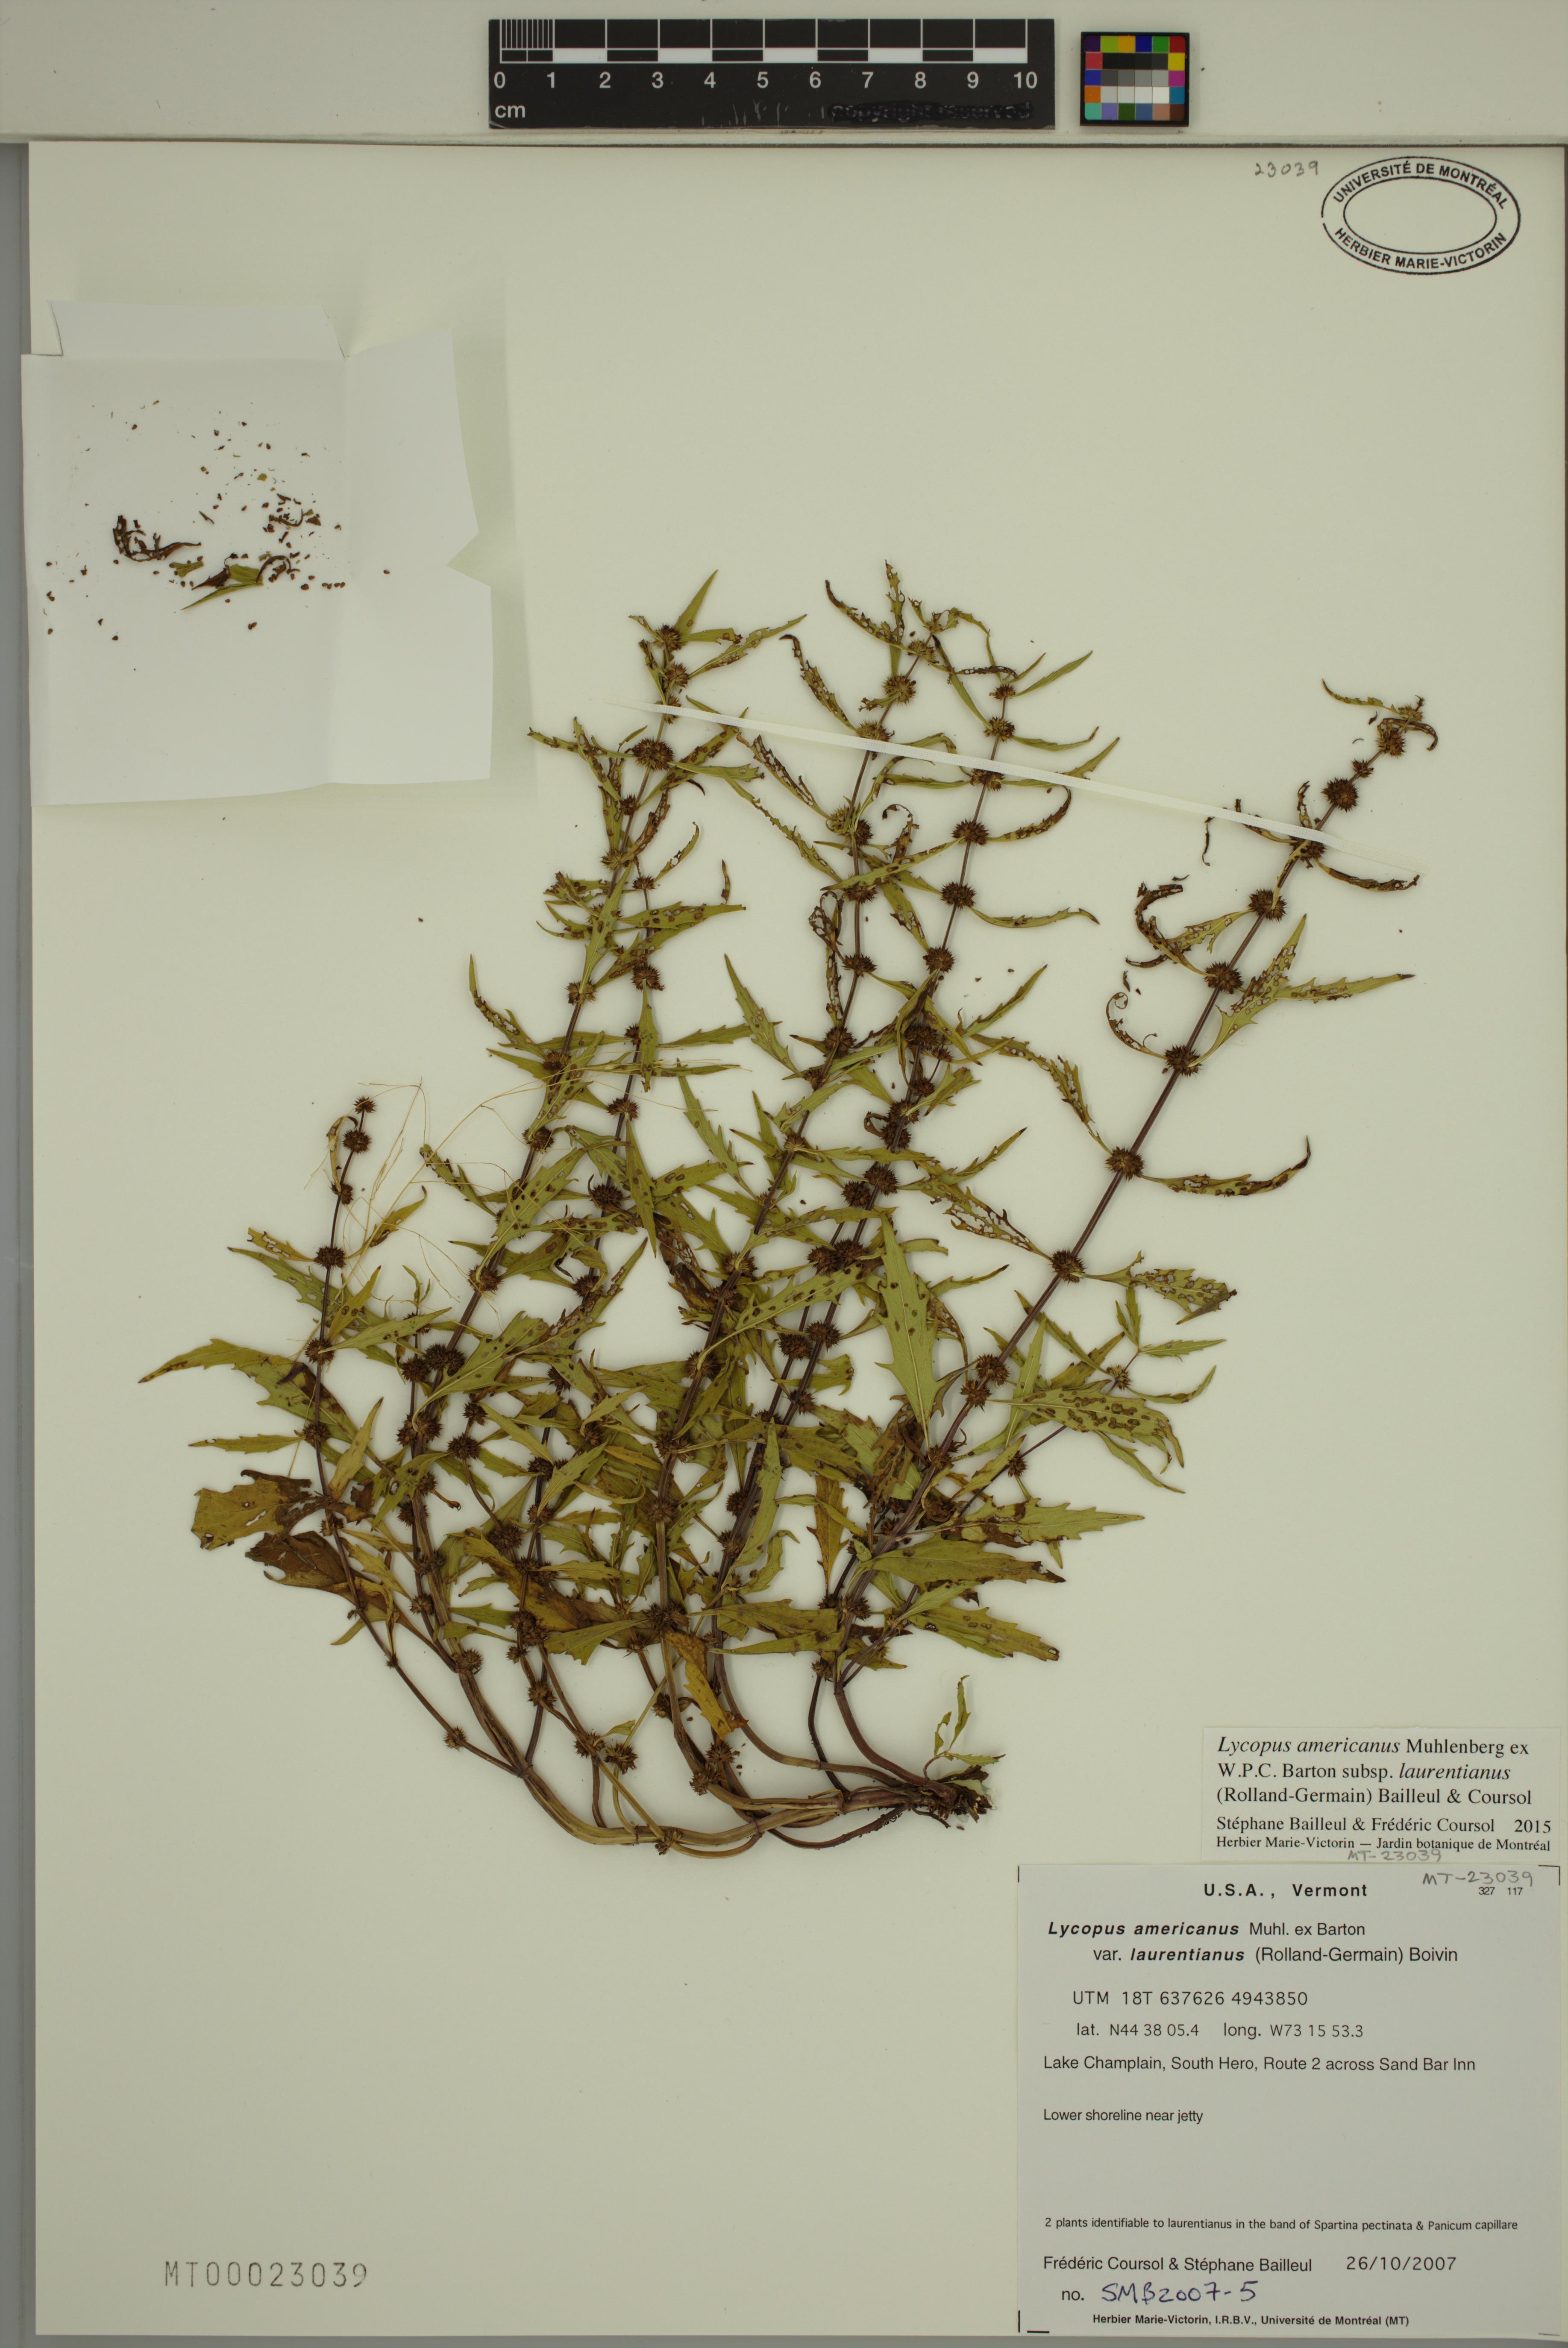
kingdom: Plantae
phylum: Tracheophyta
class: Magnoliopsida
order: Lamiales
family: Lamiaceae
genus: Lycopus
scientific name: Lycopus americanus
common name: American bugleweed
